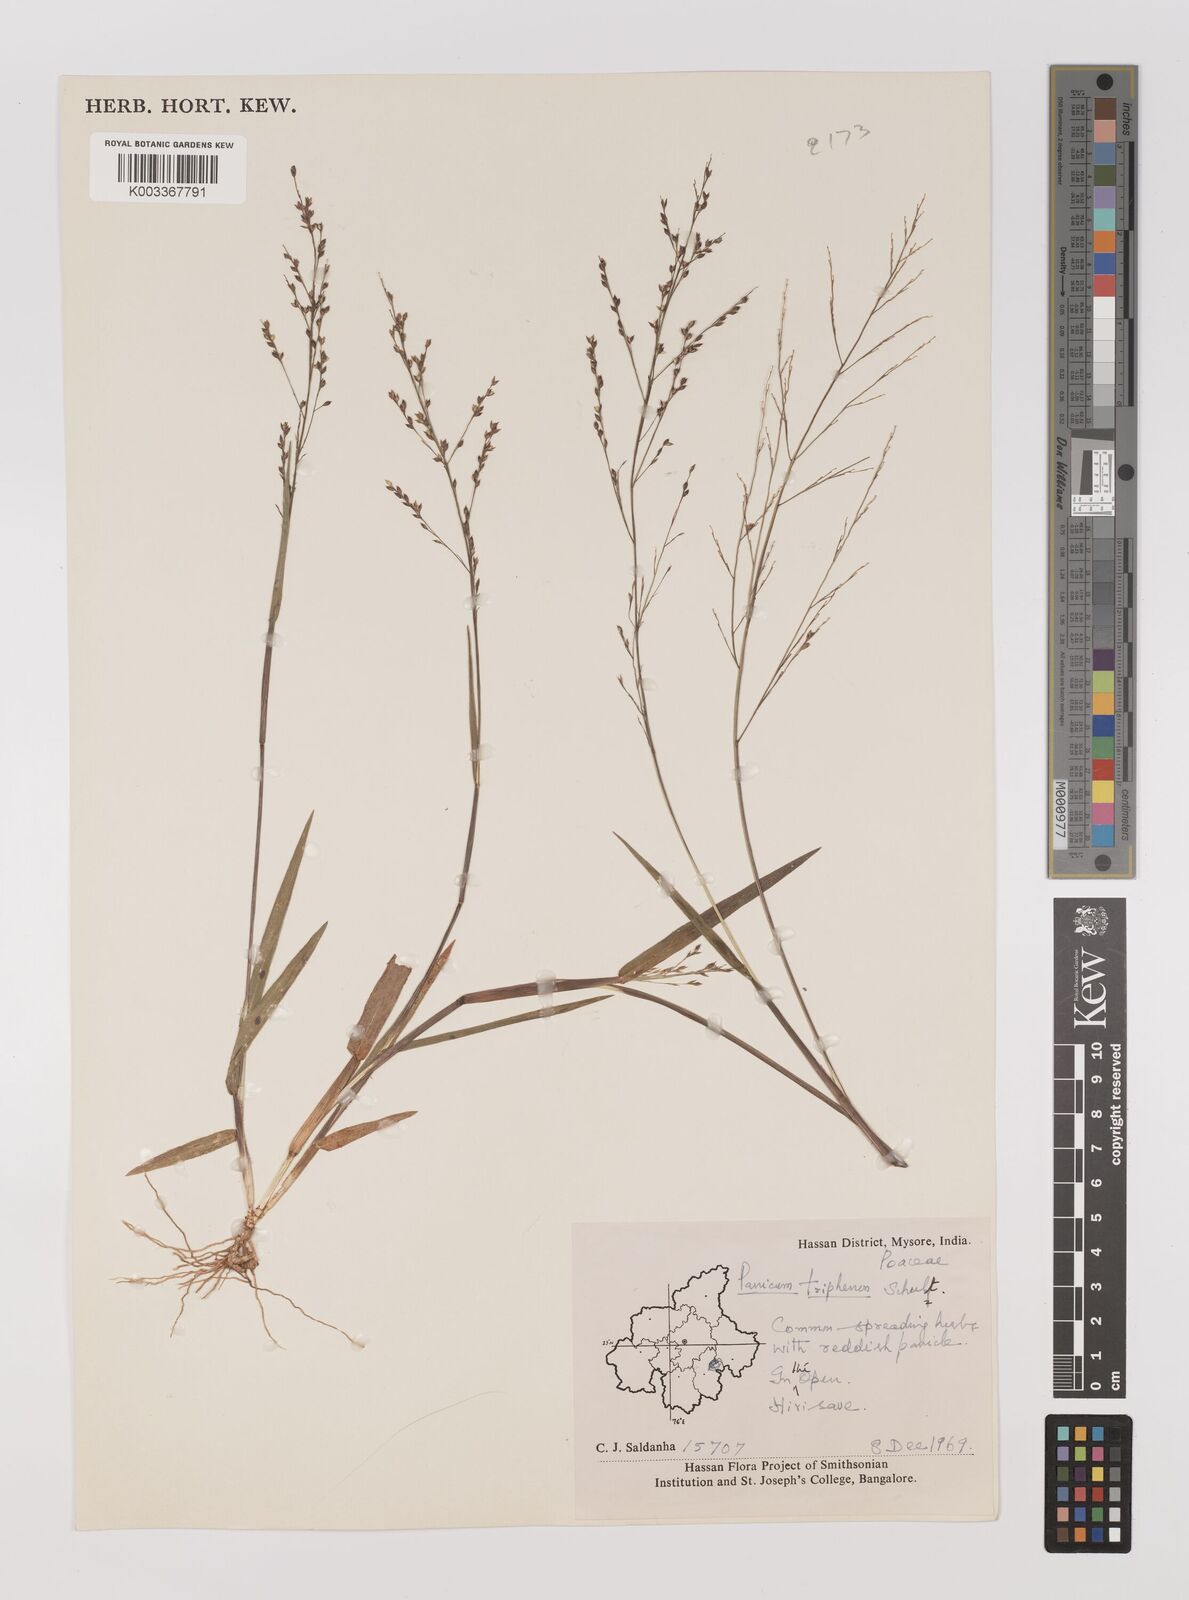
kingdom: Plantae
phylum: Tracheophyta
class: Liliopsida
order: Poales
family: Poaceae
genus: Panicum
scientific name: Panicum curviflorum
